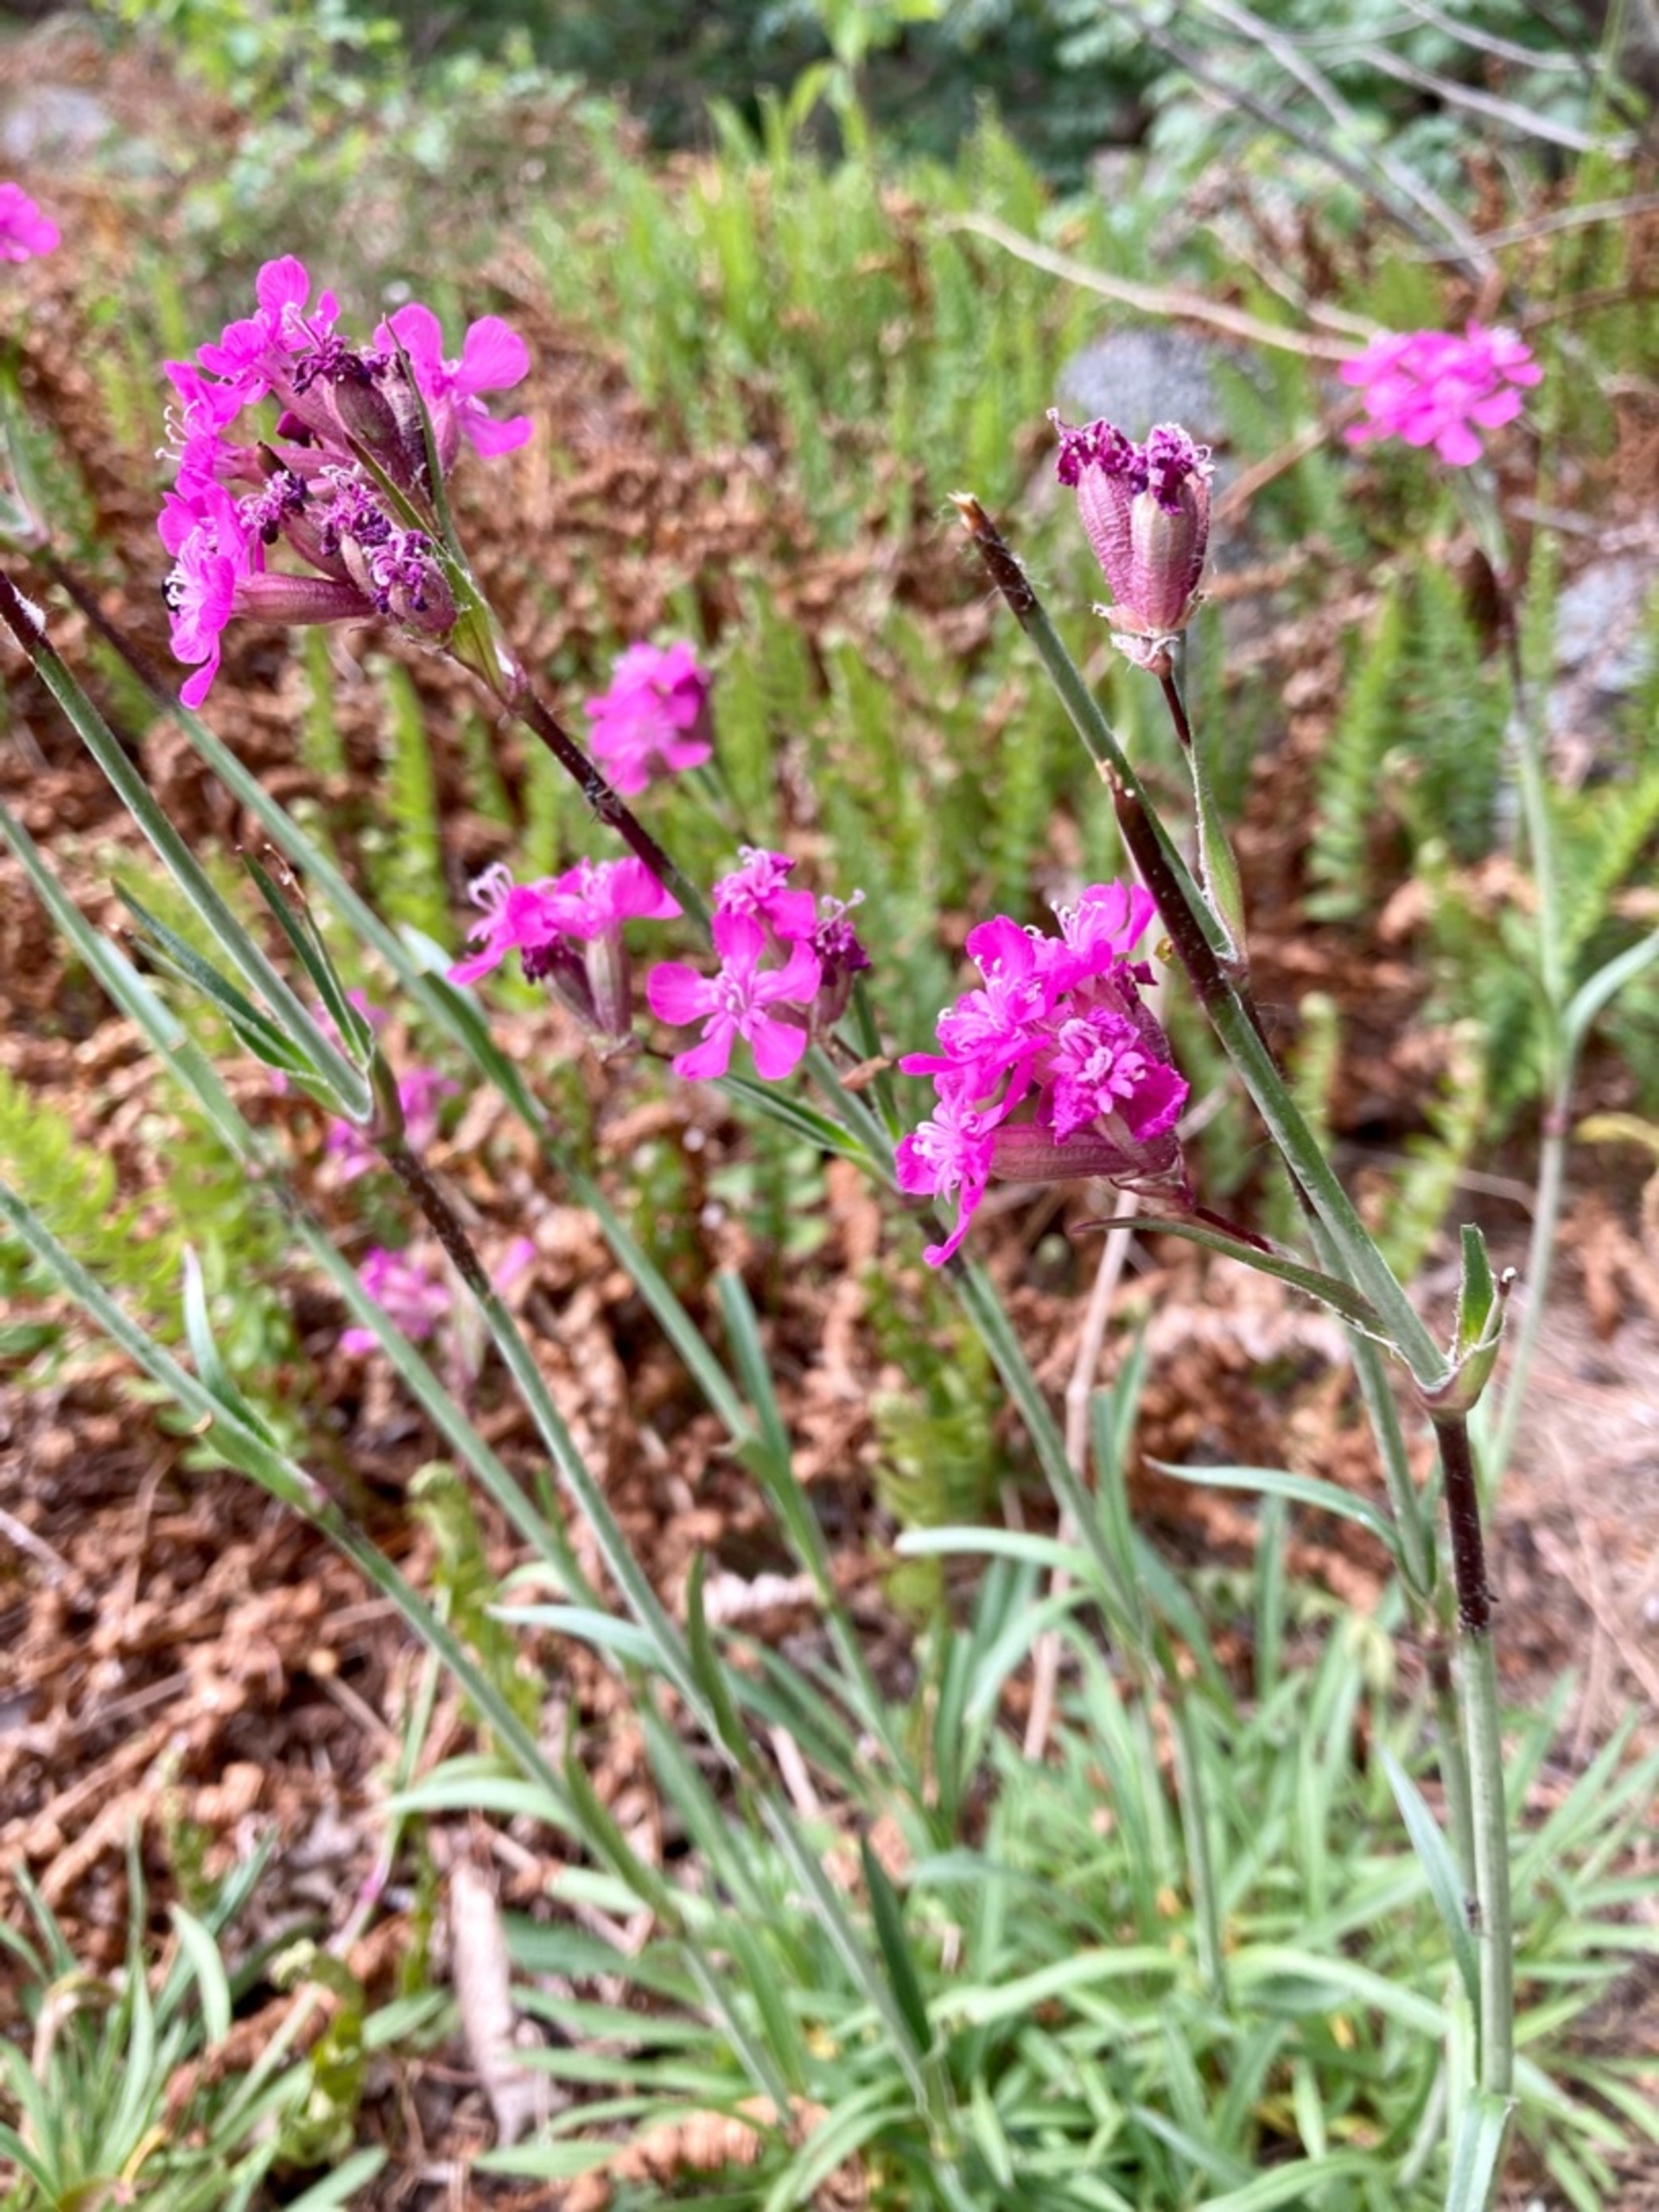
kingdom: Plantae
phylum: Tracheophyta
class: Magnoliopsida
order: Caryophyllales
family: Caryophyllaceae
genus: Viscaria
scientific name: Viscaria vulgaris
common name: Tjærenellike
